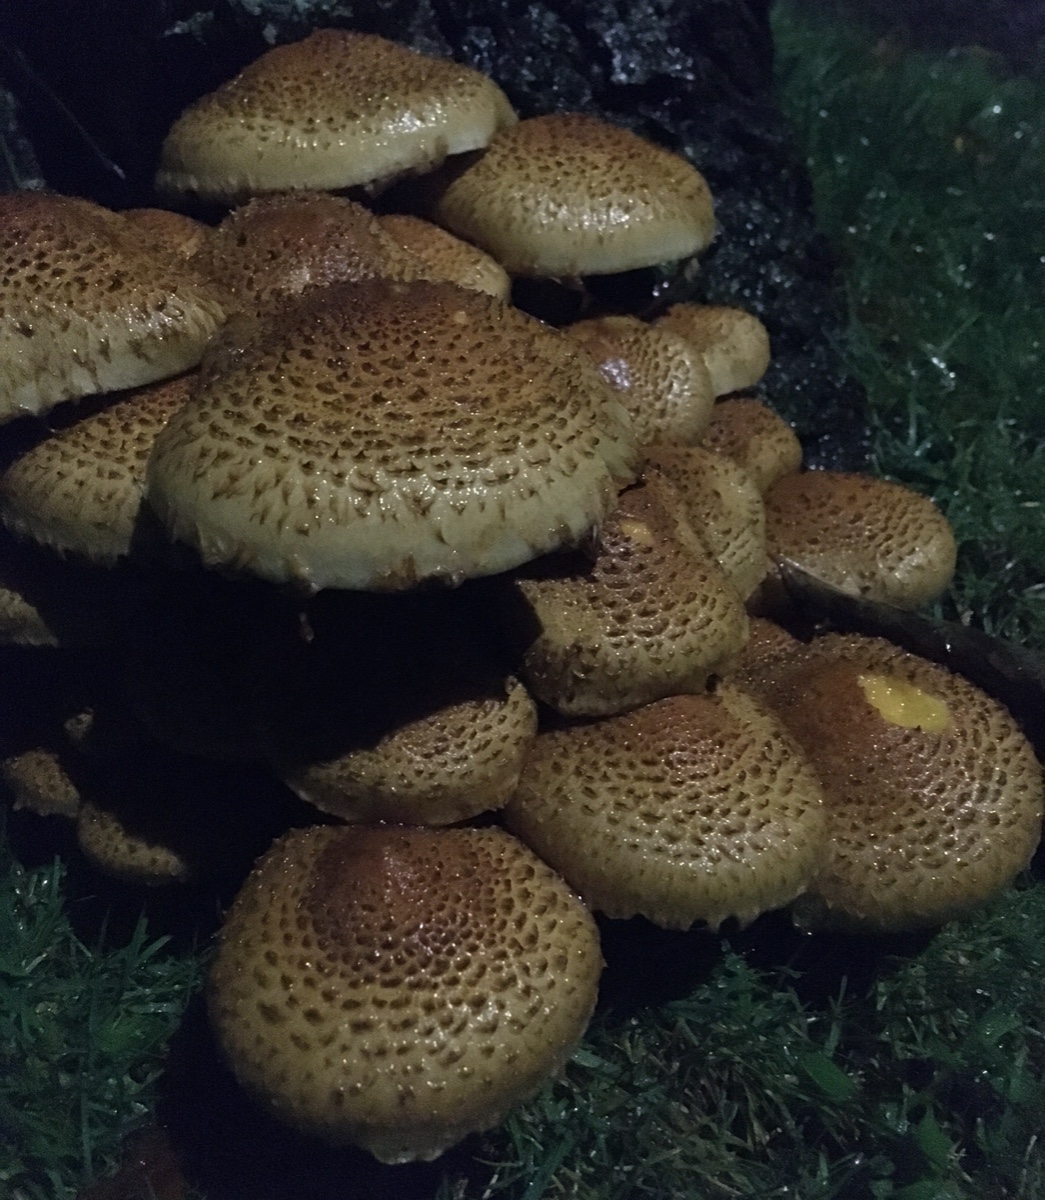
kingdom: Fungi
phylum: Basidiomycota
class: Agaricomycetes
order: Agaricales
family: Strophariaceae
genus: Pholiota
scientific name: Pholiota squarrosa
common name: krumskællet skælhat
